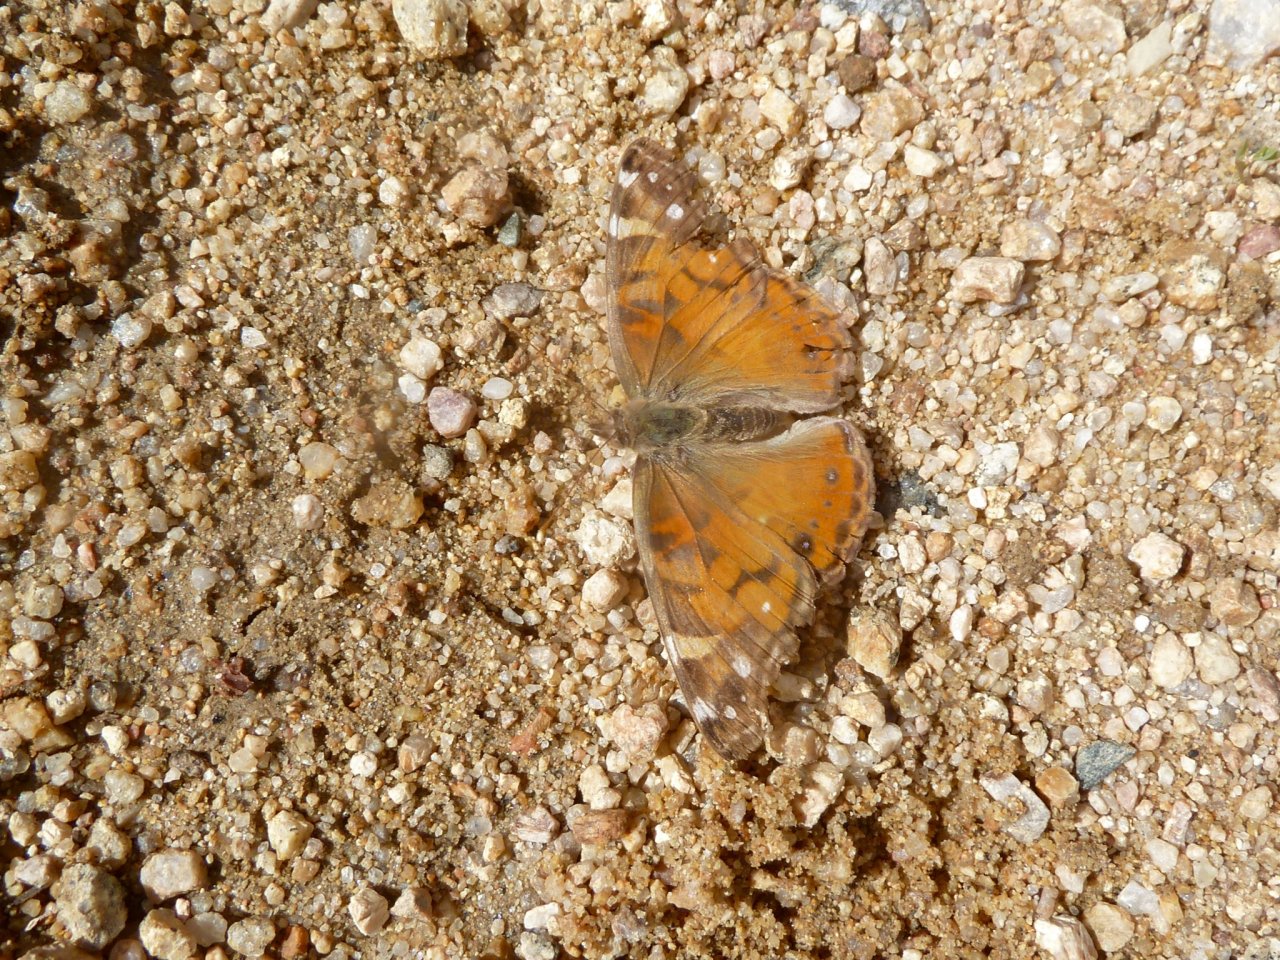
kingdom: Animalia
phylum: Arthropoda
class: Insecta
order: Lepidoptera
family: Nymphalidae
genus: Vanessa
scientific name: Vanessa virginiensis
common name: American Lady
